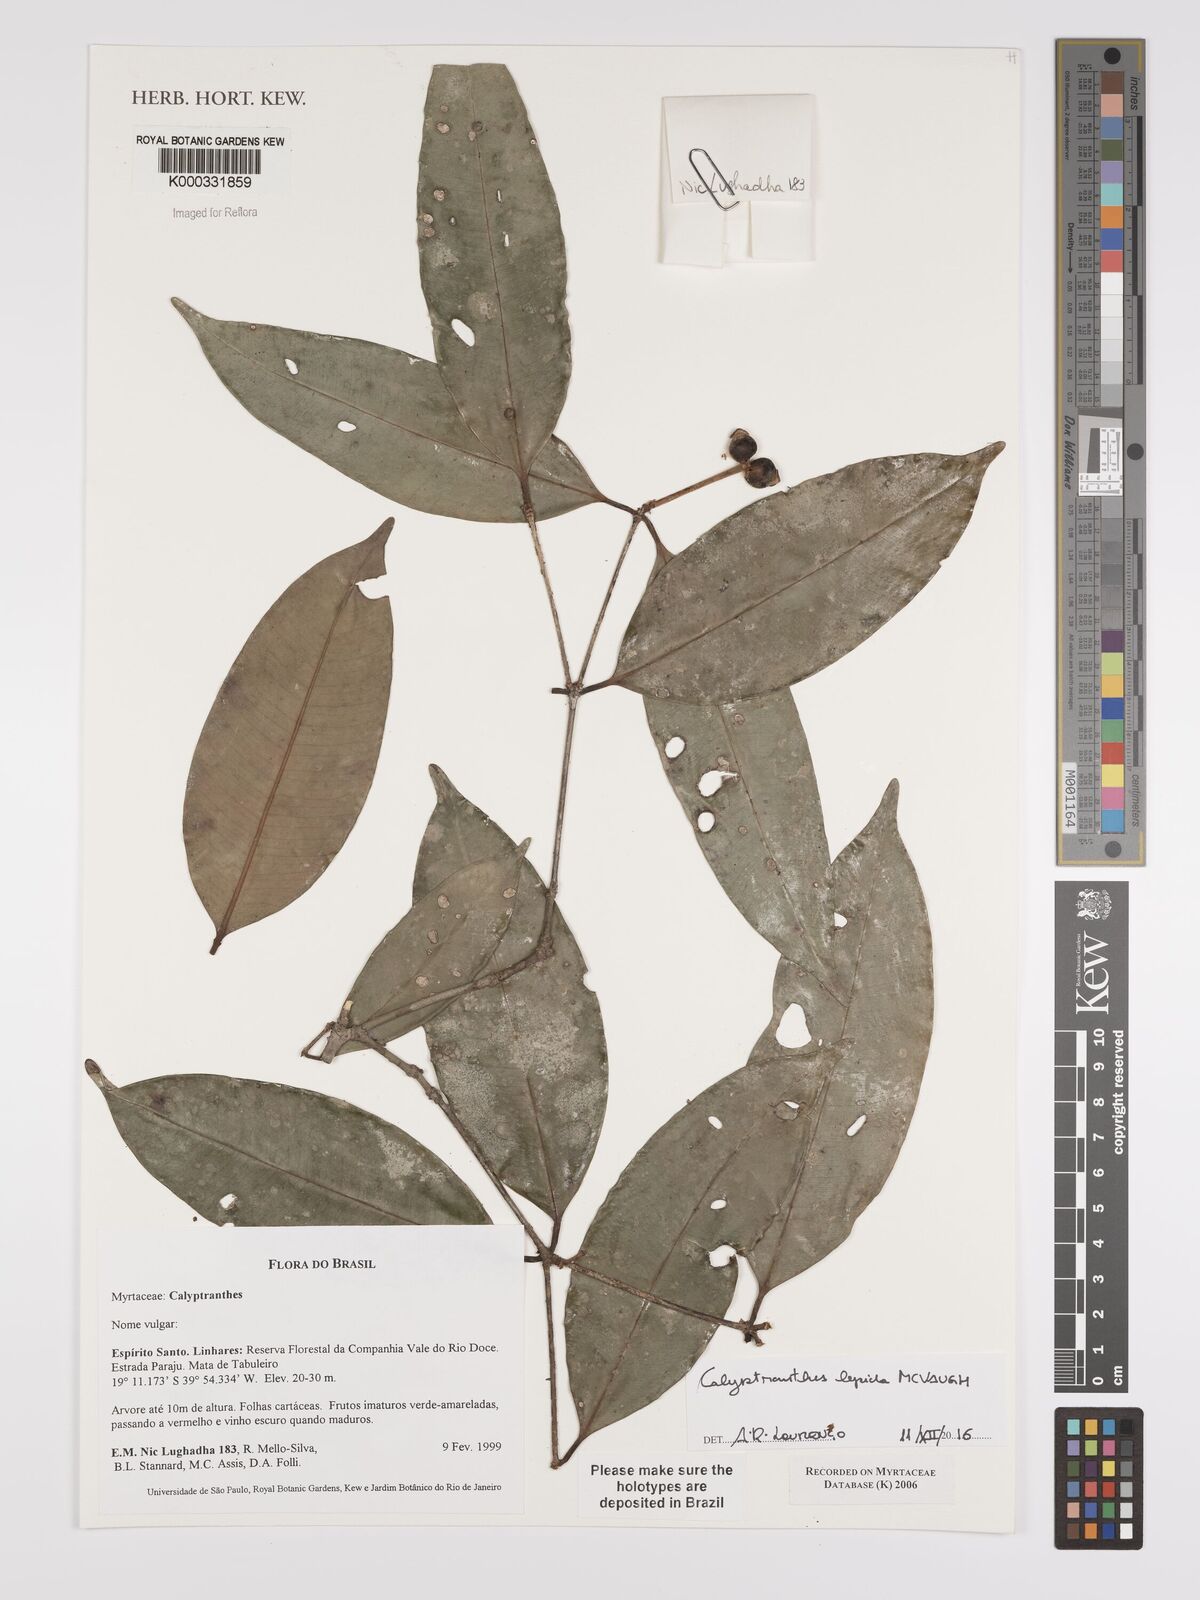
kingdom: Plantae
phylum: Tracheophyta
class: Magnoliopsida
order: Myrtales
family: Myrtaceae
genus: Calyptranthes
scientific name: Calyptranthes
